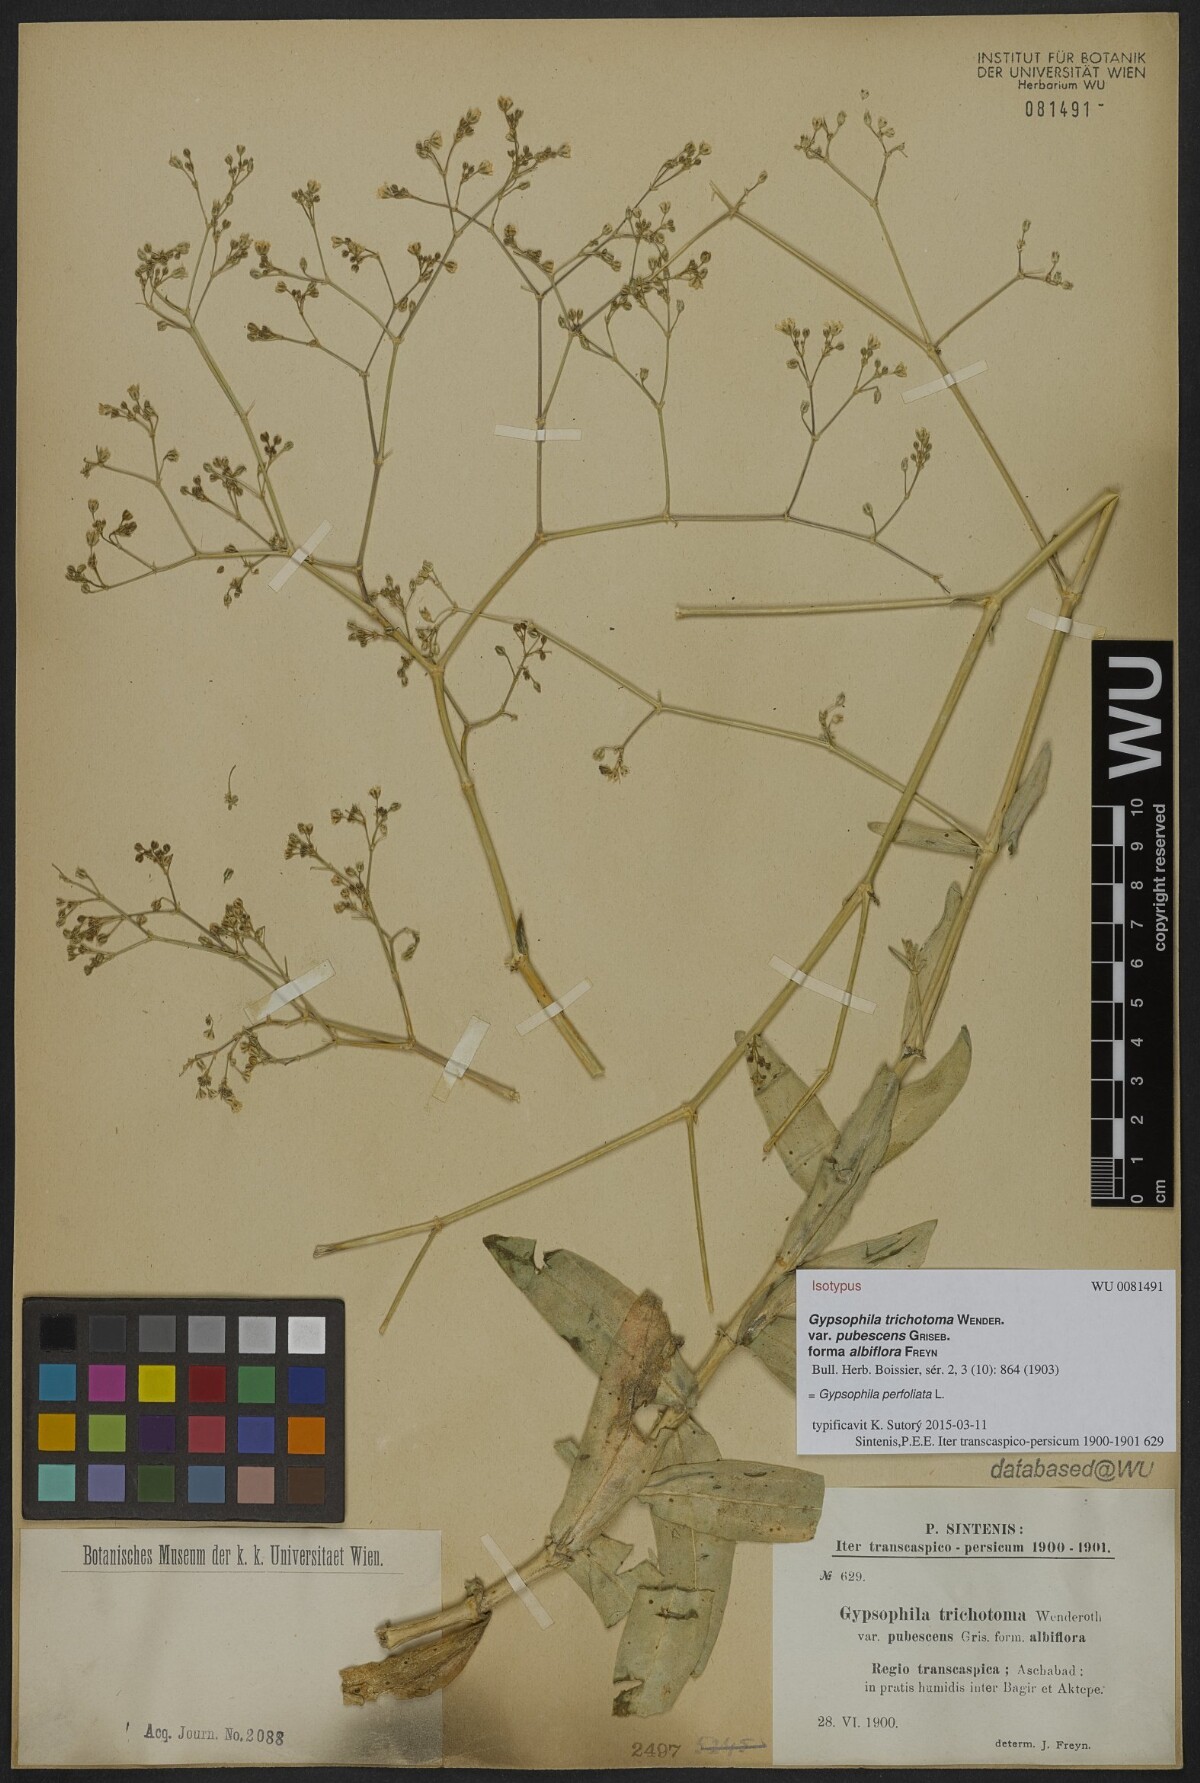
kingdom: Plantae
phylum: Tracheophyta
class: Magnoliopsida
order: Caryophyllales
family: Caryophyllaceae
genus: Gypsophila
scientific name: Gypsophila perfoliata
